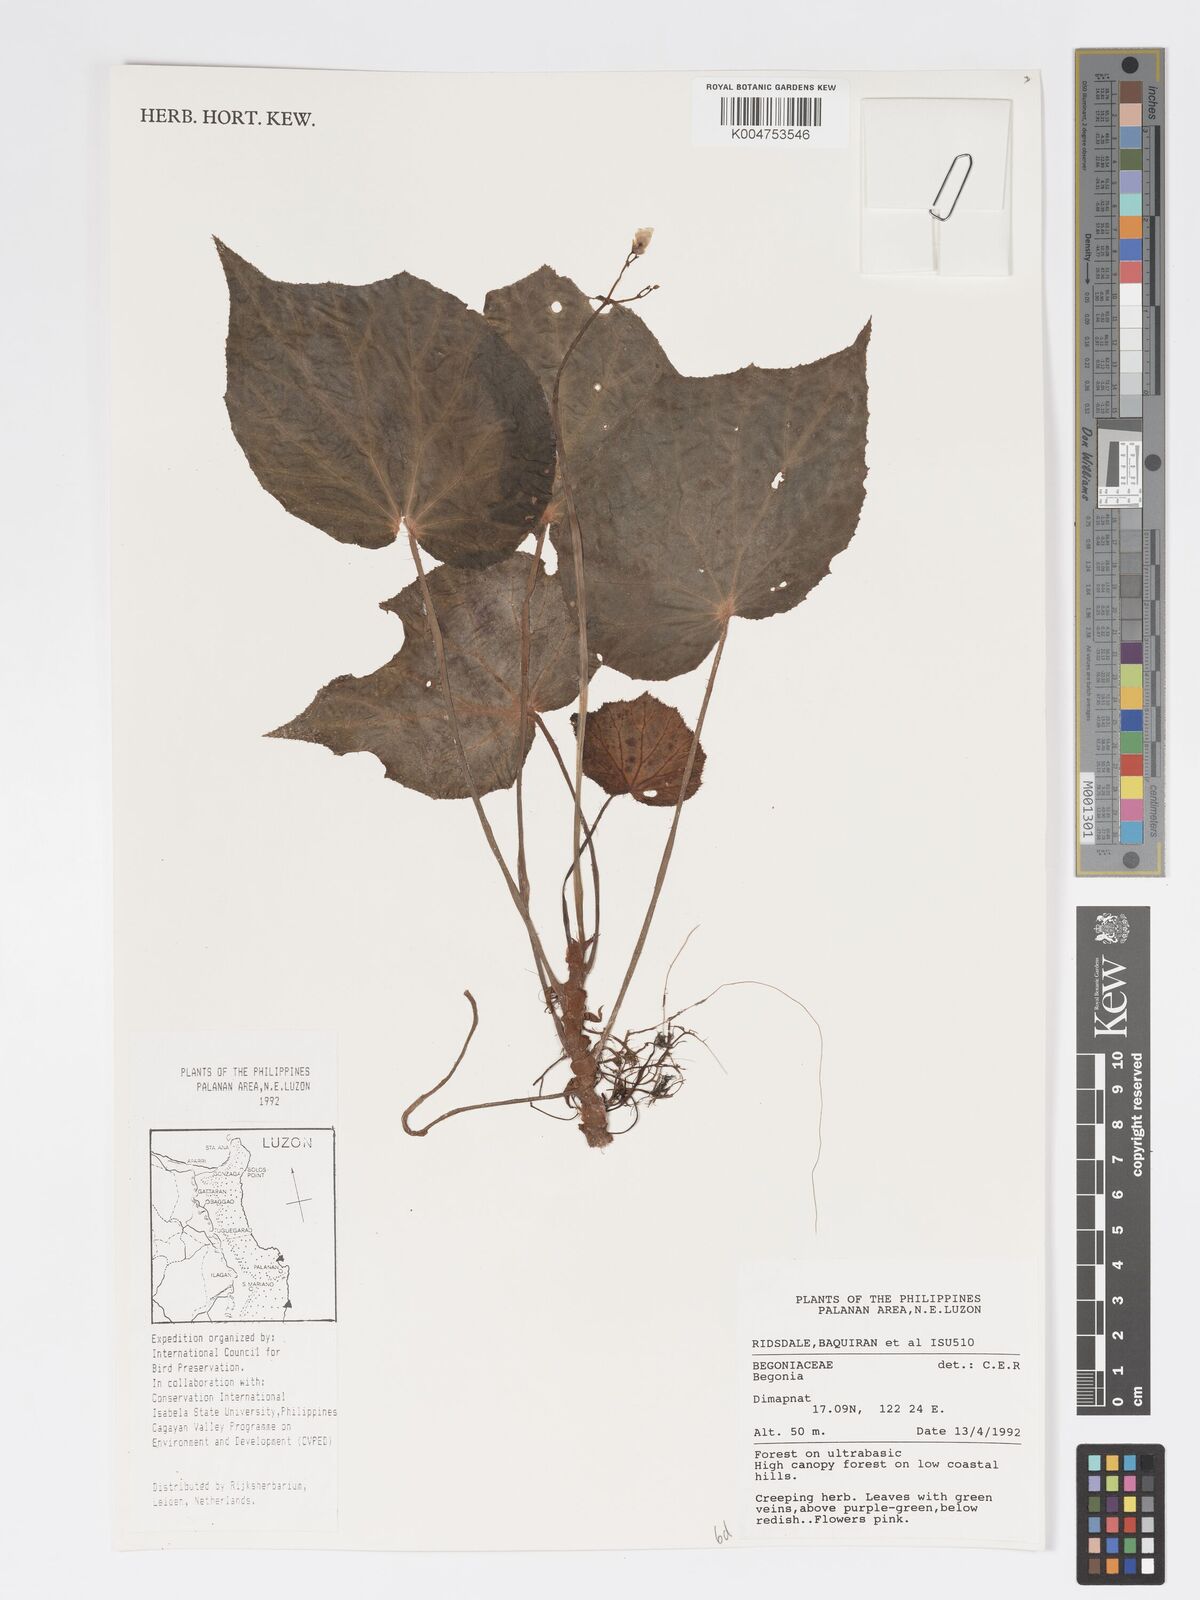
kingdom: Plantae
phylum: Tracheophyta
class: Magnoliopsida
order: Cucurbitales
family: Begoniaceae
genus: Begonia
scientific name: Begonia
